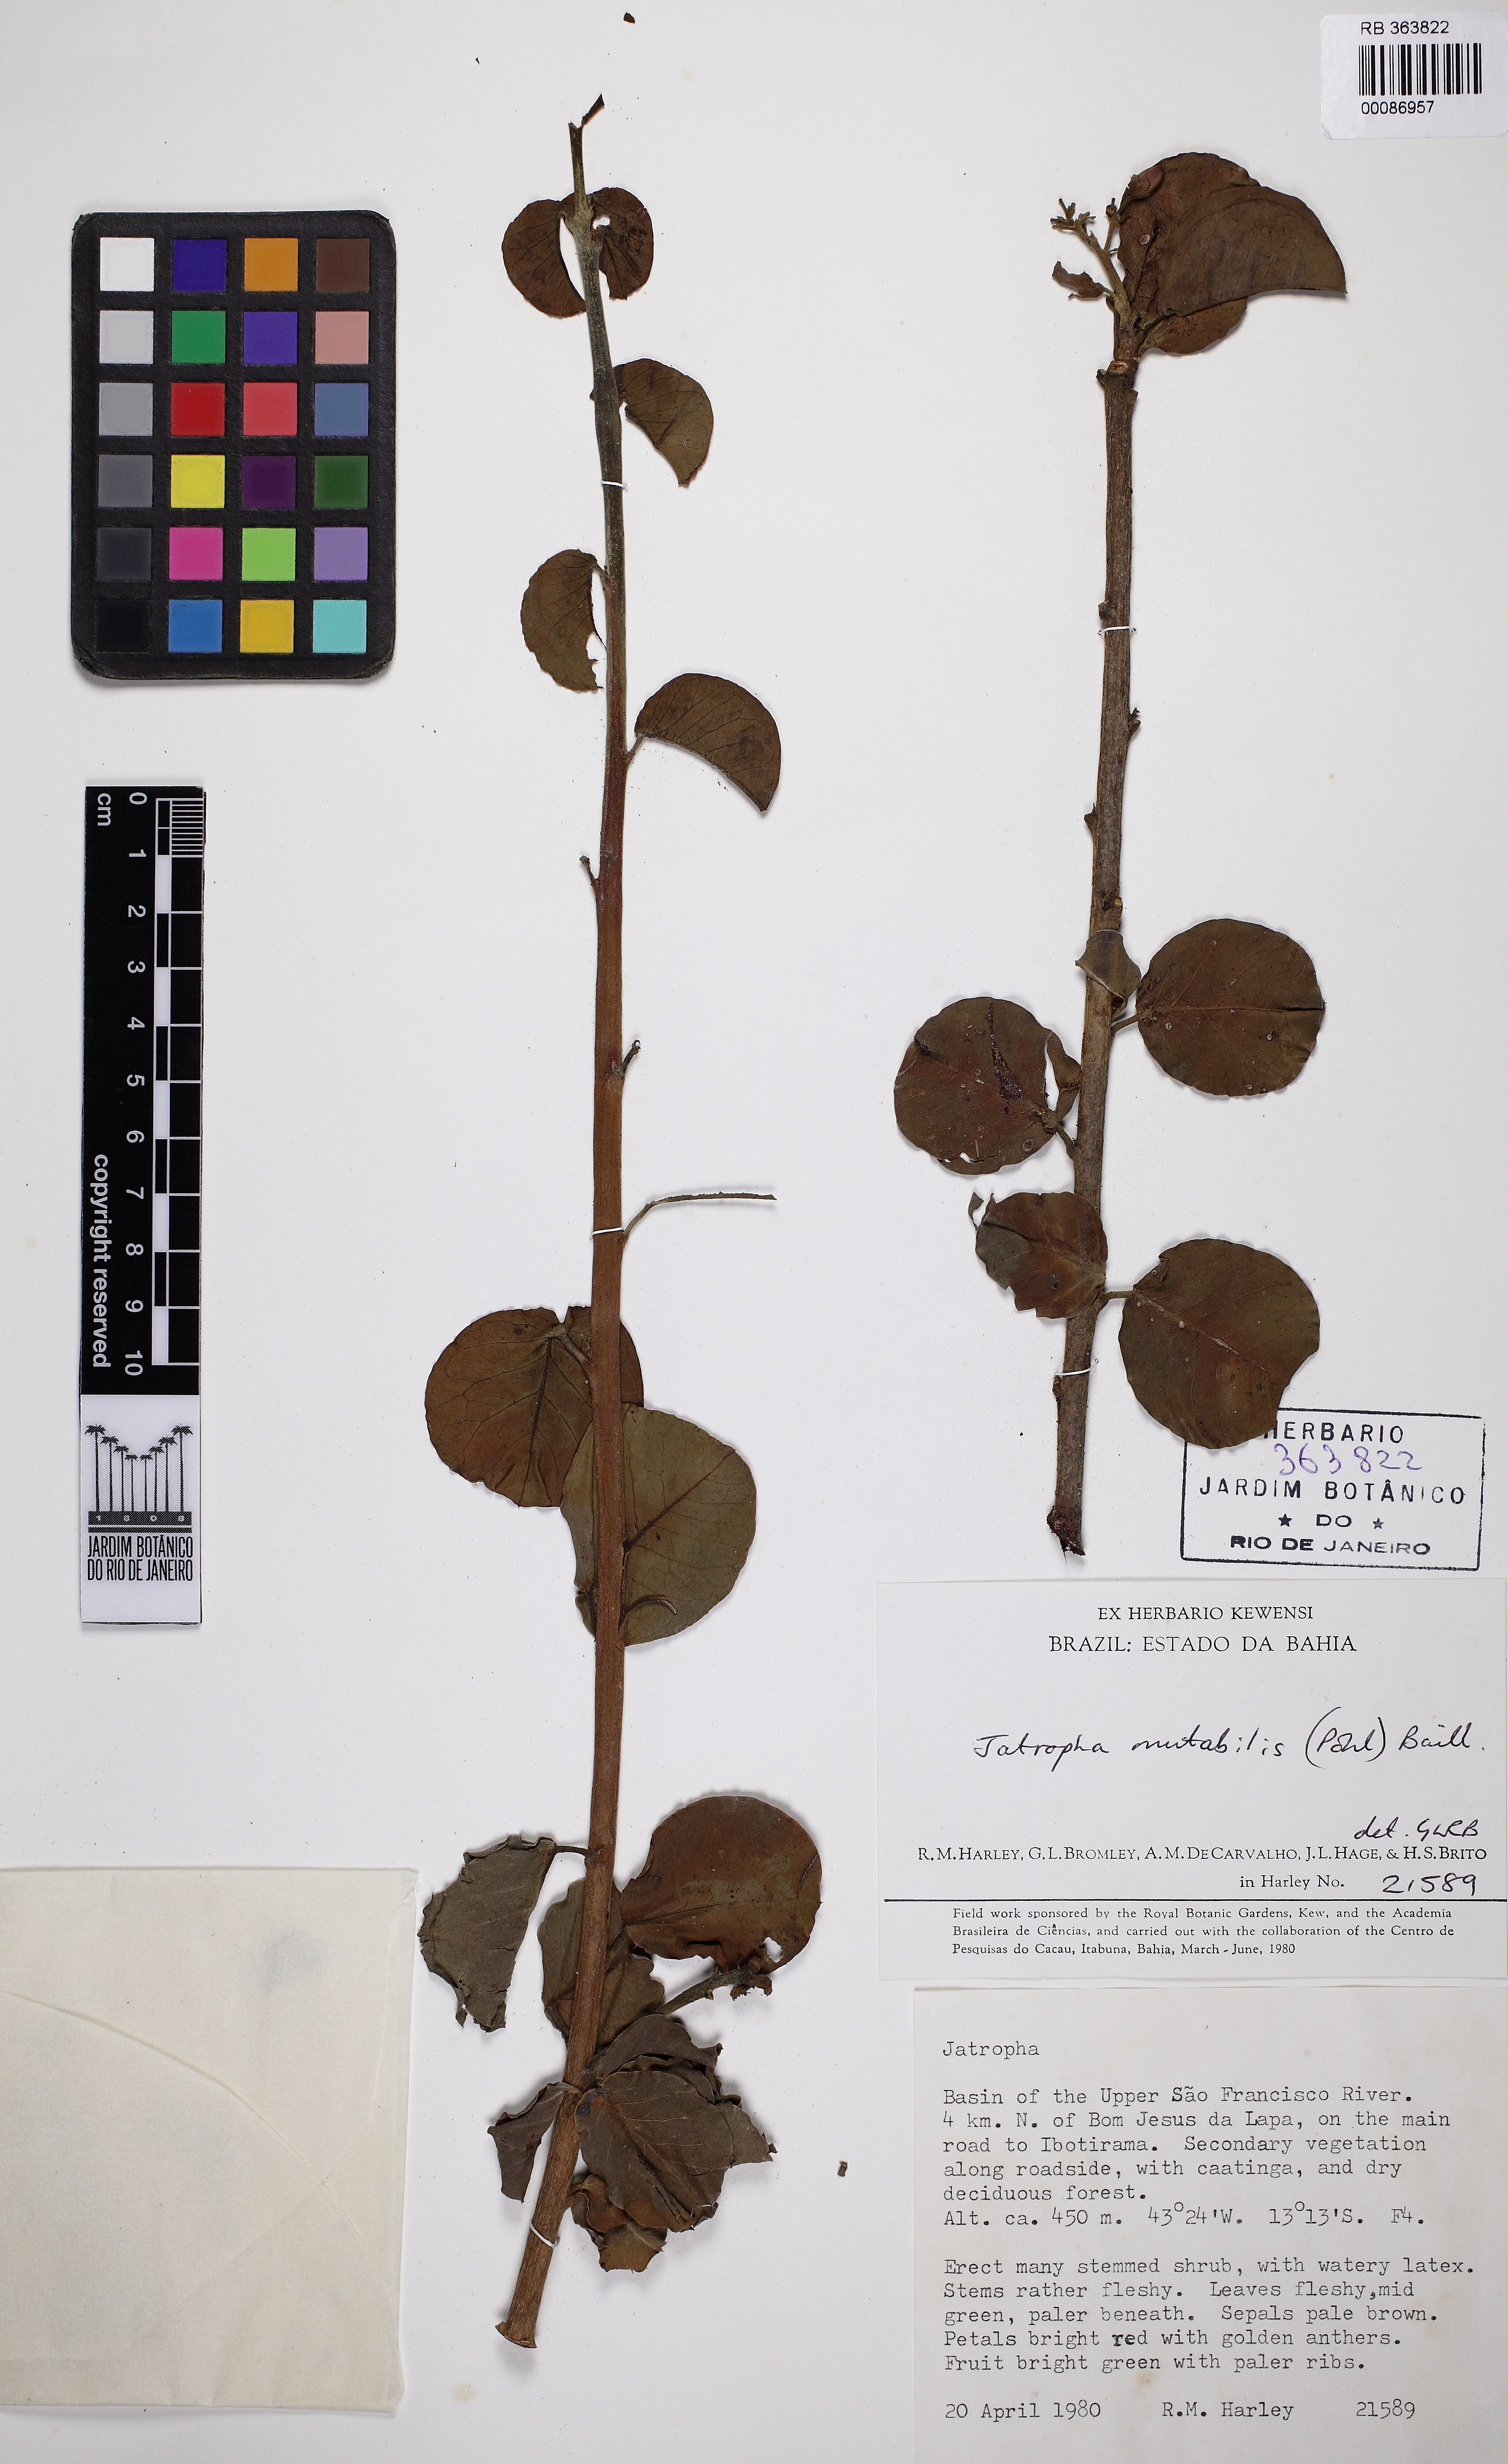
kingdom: Plantae
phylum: Tracheophyta
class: Magnoliopsida
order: Malpighiales
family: Euphorbiaceae
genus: Jatropha
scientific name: Jatropha mutabilis
